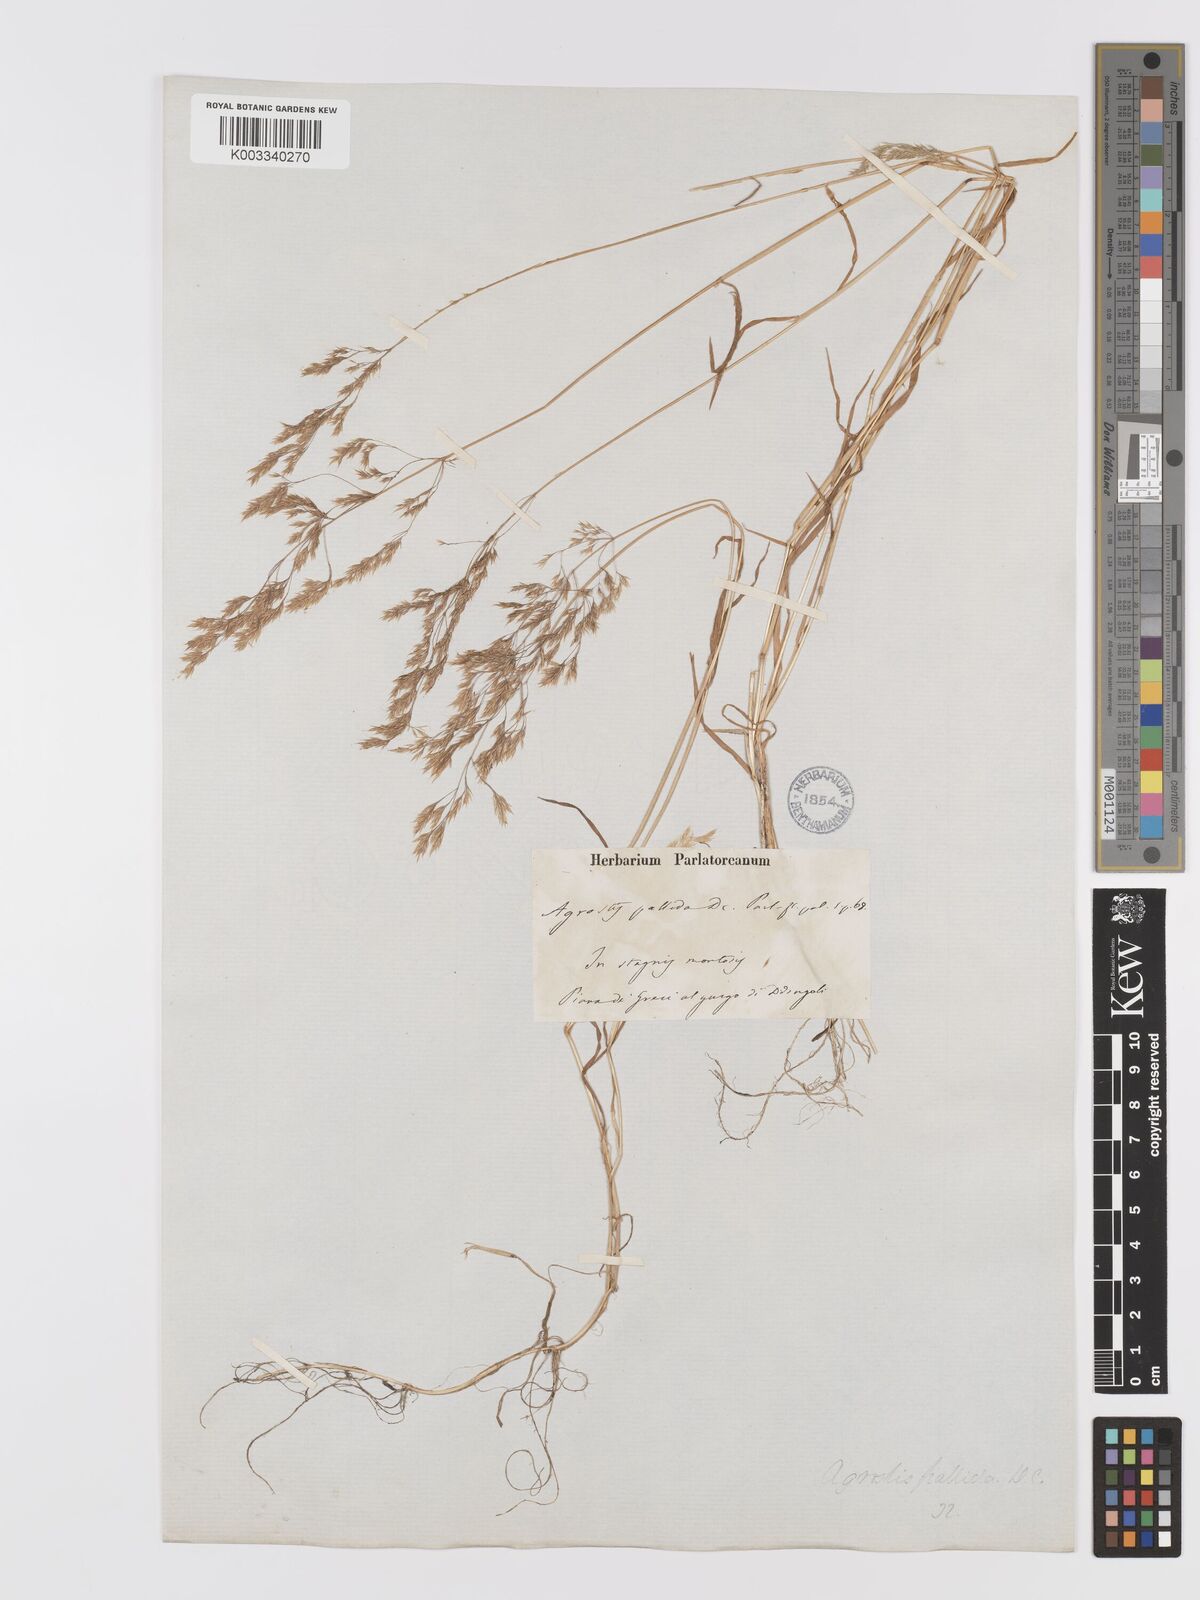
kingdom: Plantae
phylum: Tracheophyta
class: Liliopsida
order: Poales
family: Poaceae
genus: Agrostis
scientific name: Agrostis pourretii
